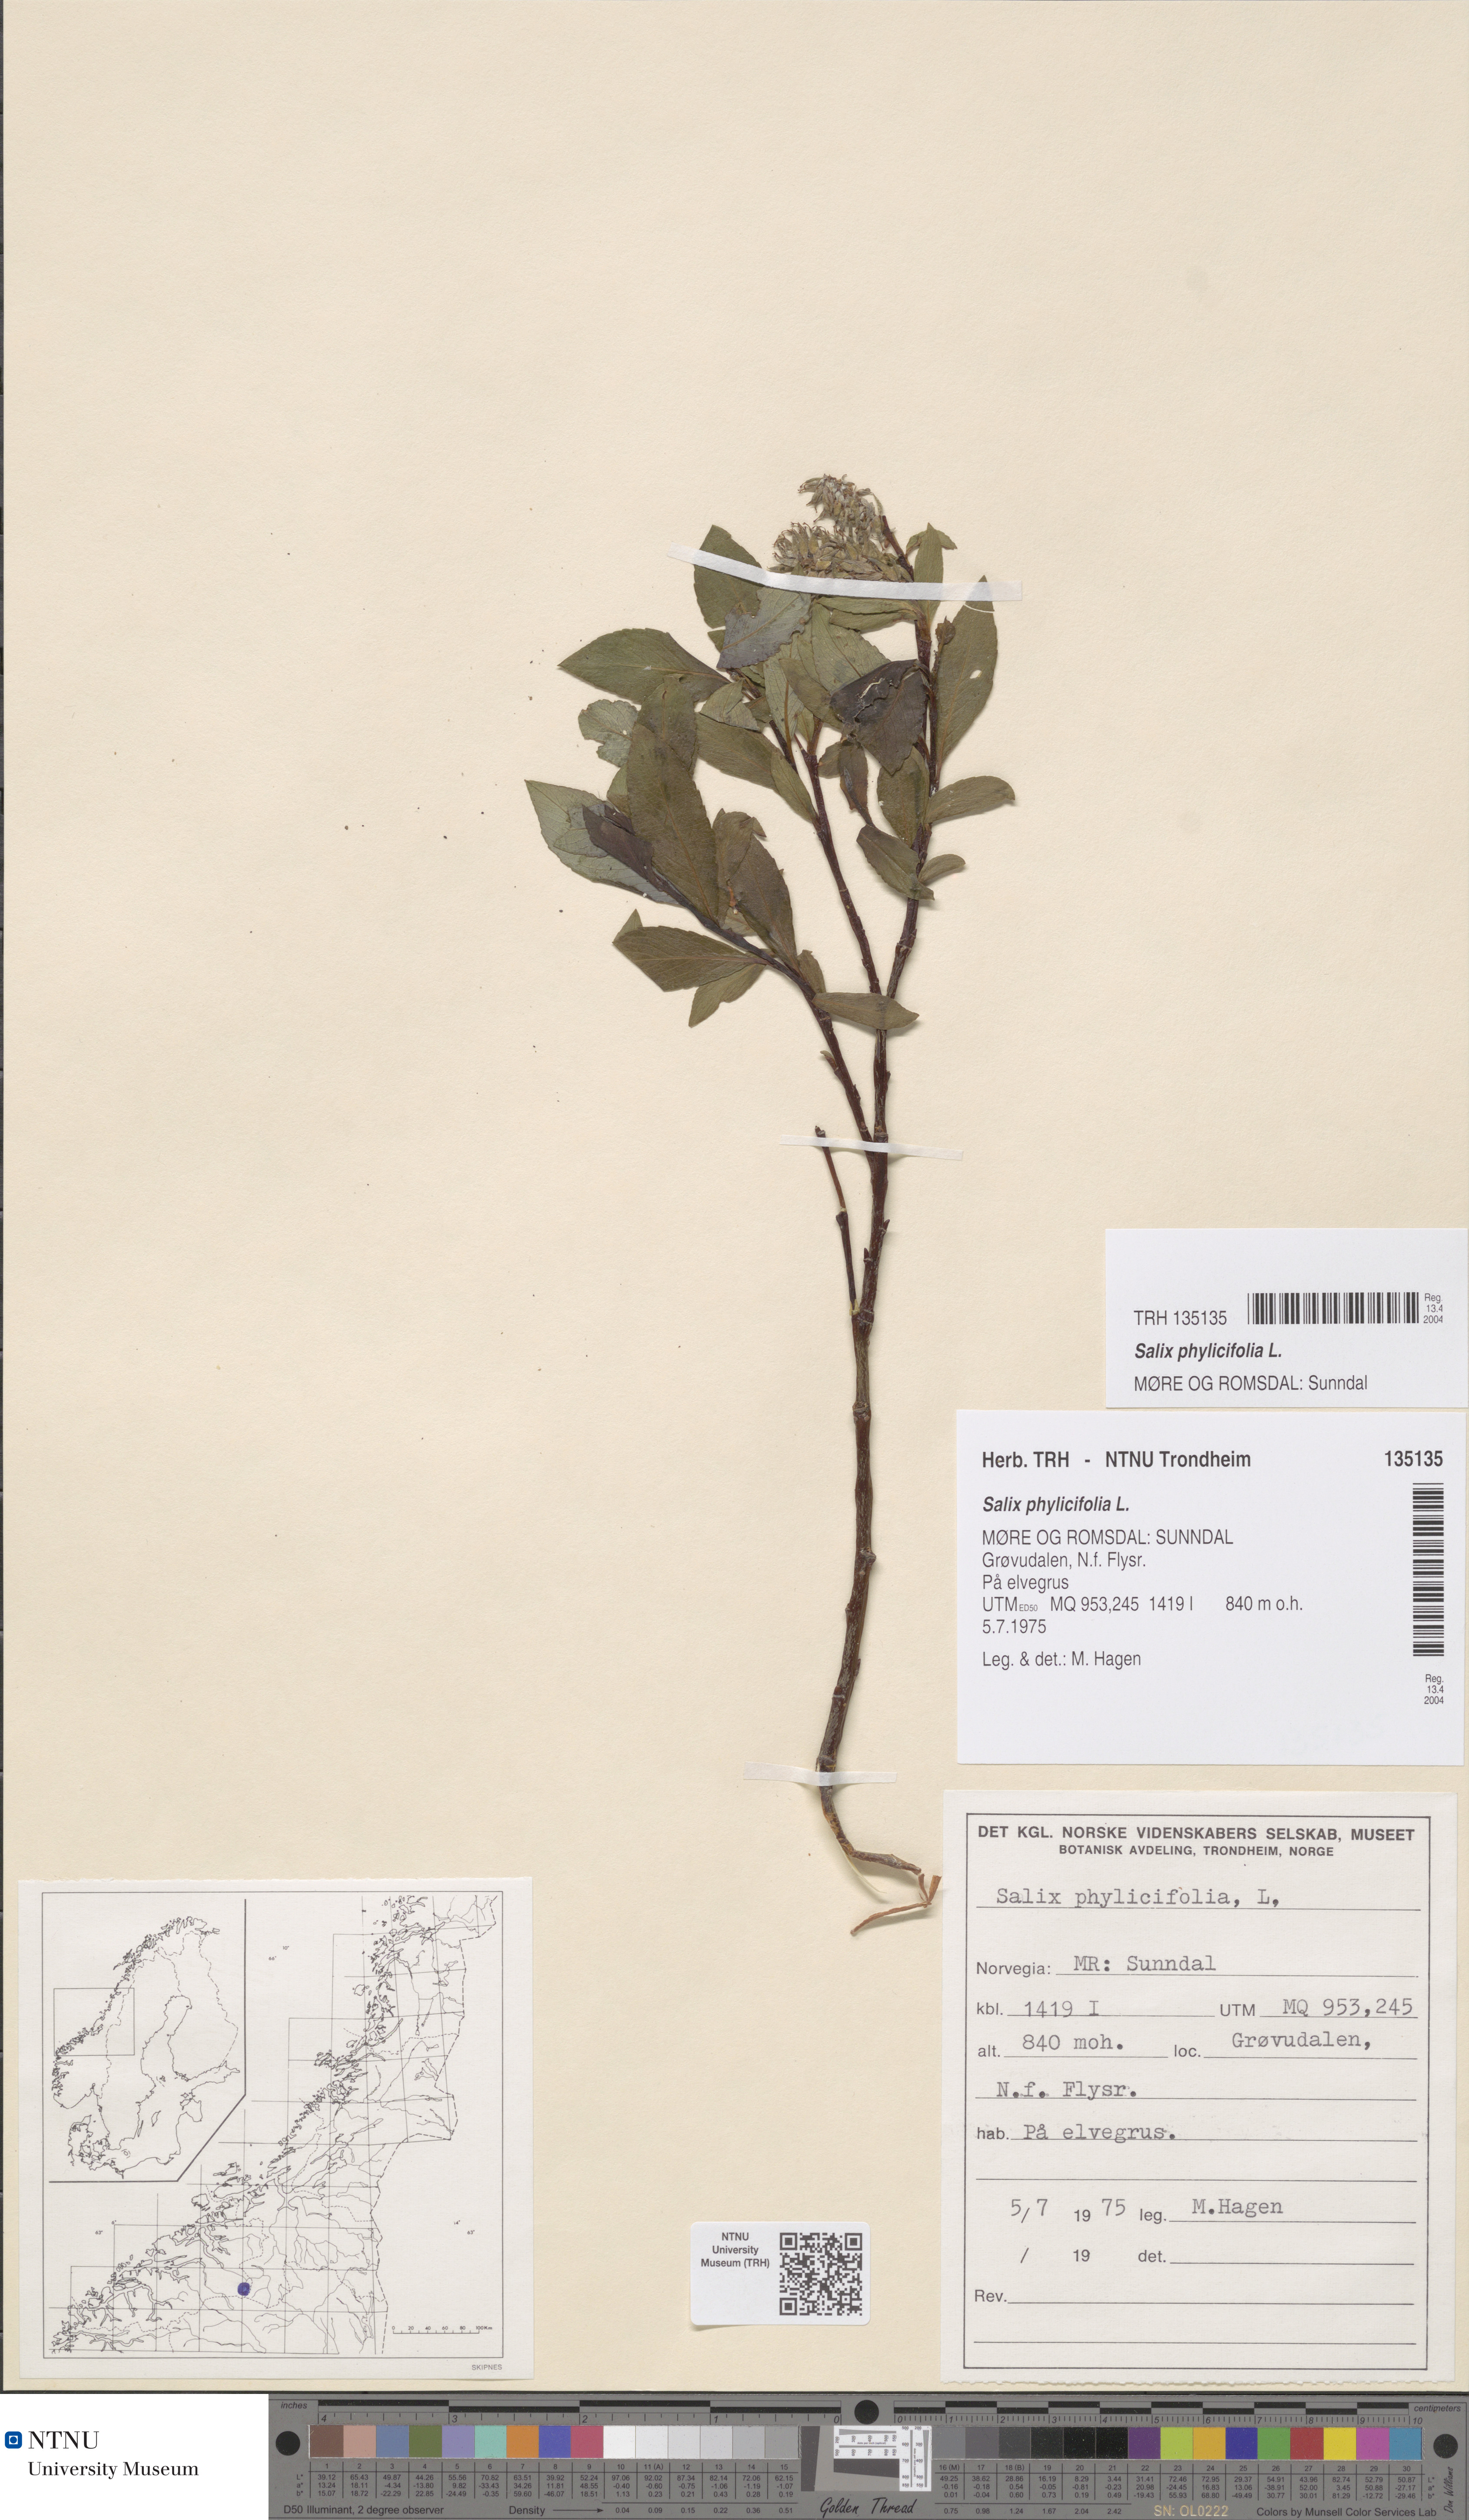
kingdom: Plantae
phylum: Tracheophyta
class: Magnoliopsida
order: Malpighiales
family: Salicaceae
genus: Salix
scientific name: Salix phylicifolia
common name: Tea-leaved willow
